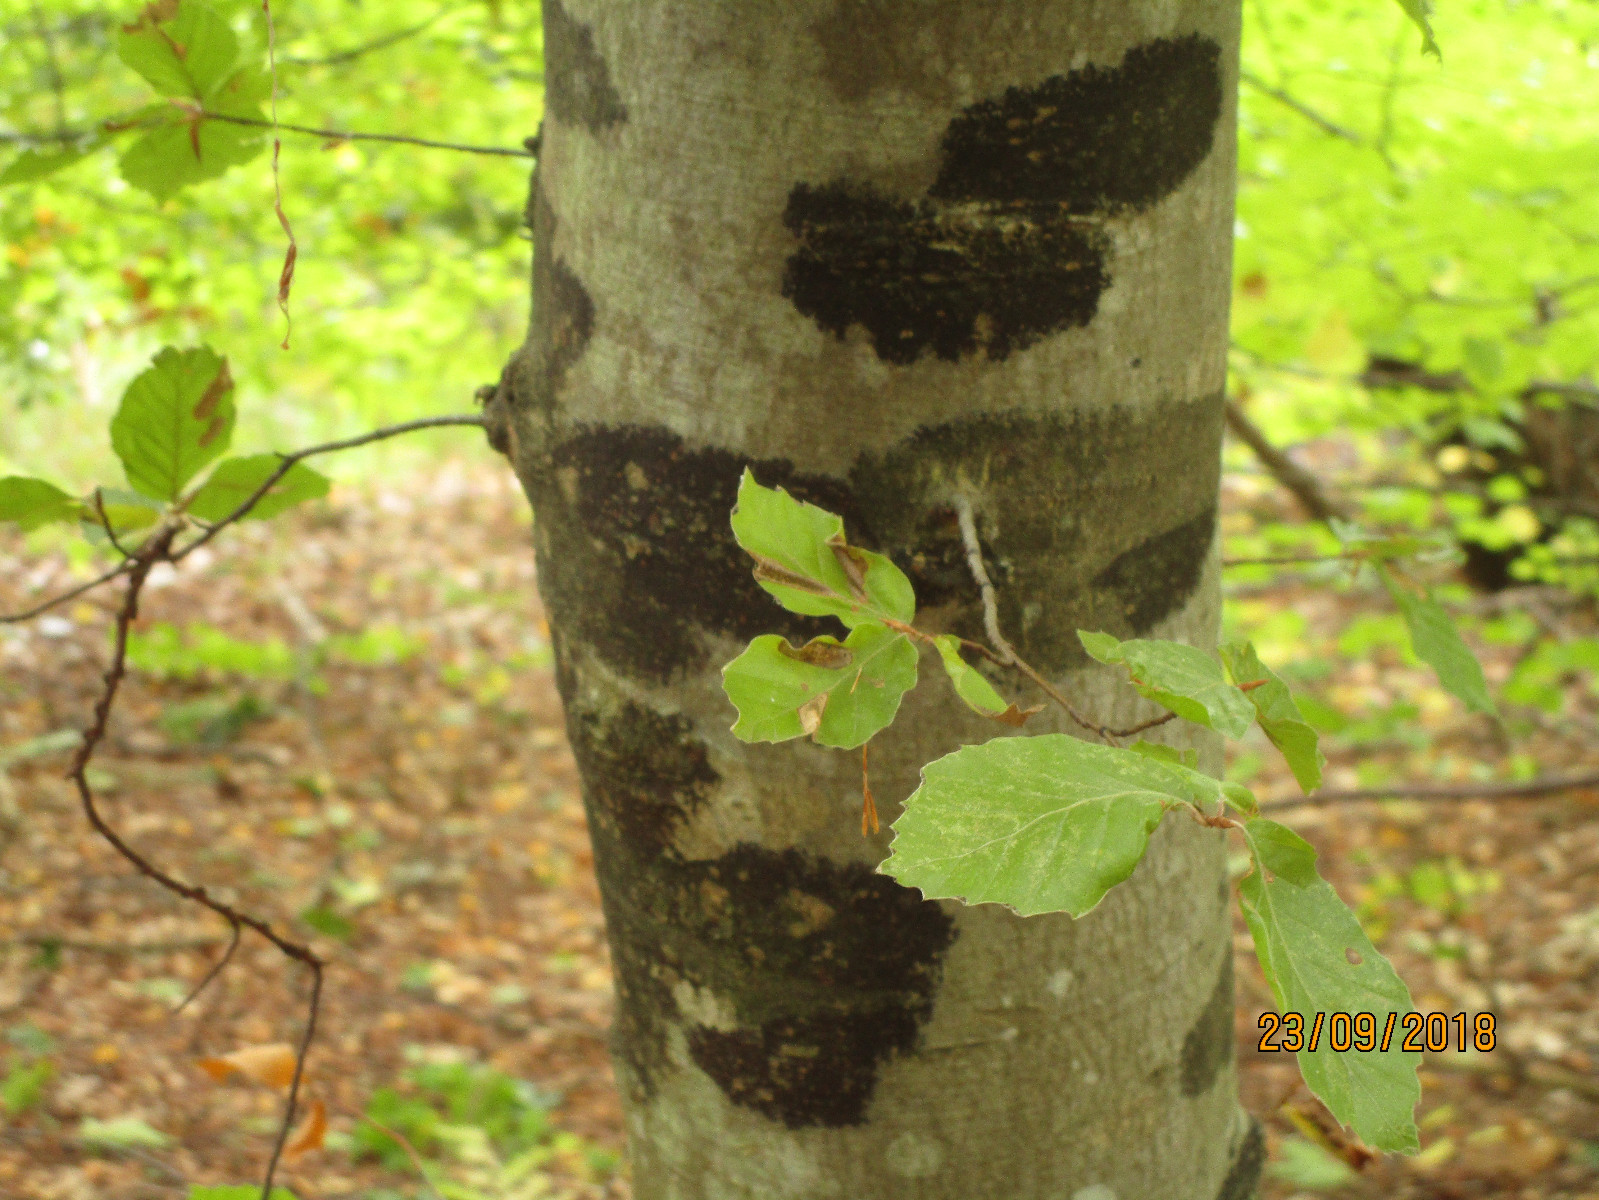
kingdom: Fungi
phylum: Ascomycota
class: Leotiomycetes
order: Rhytismatales
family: Ascodichaenaceae
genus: Ascodichaena
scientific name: Ascodichaena rugosa
